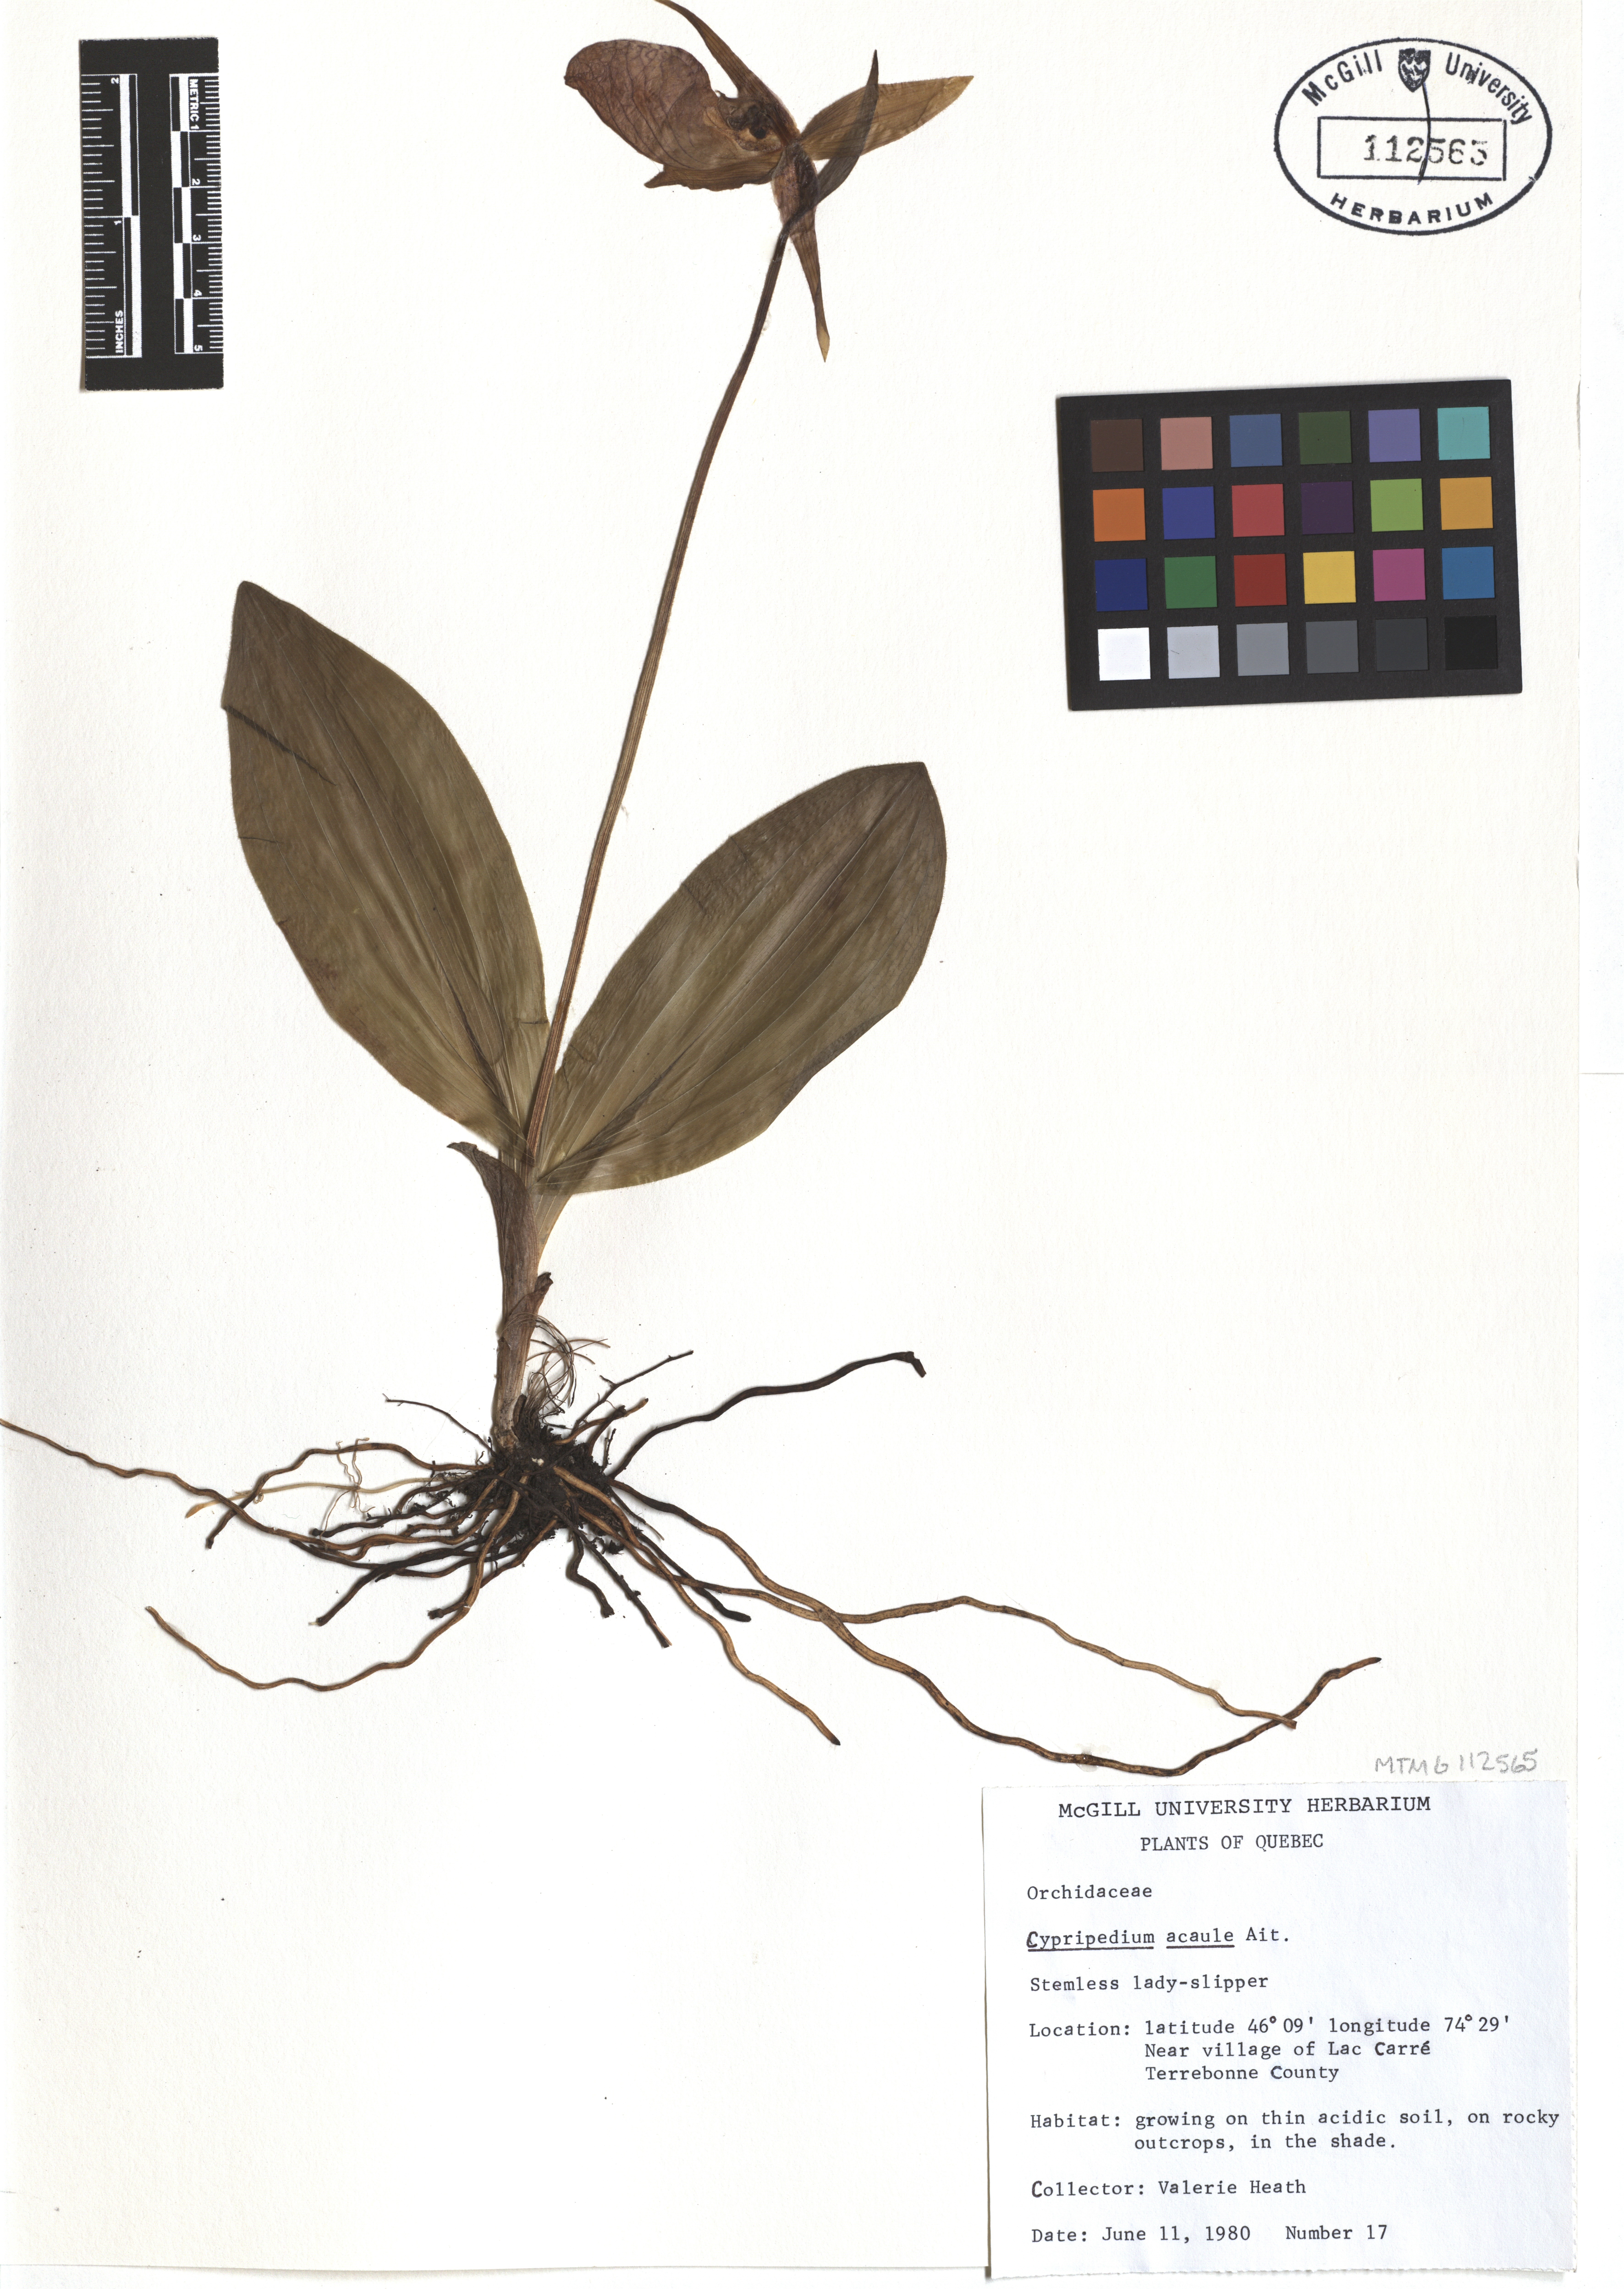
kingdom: Plantae
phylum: Tracheophyta
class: Liliopsida
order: Asparagales
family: Orchidaceae
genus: Cypripedium
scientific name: Cypripedium acaule
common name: Pink lady's-slipper
